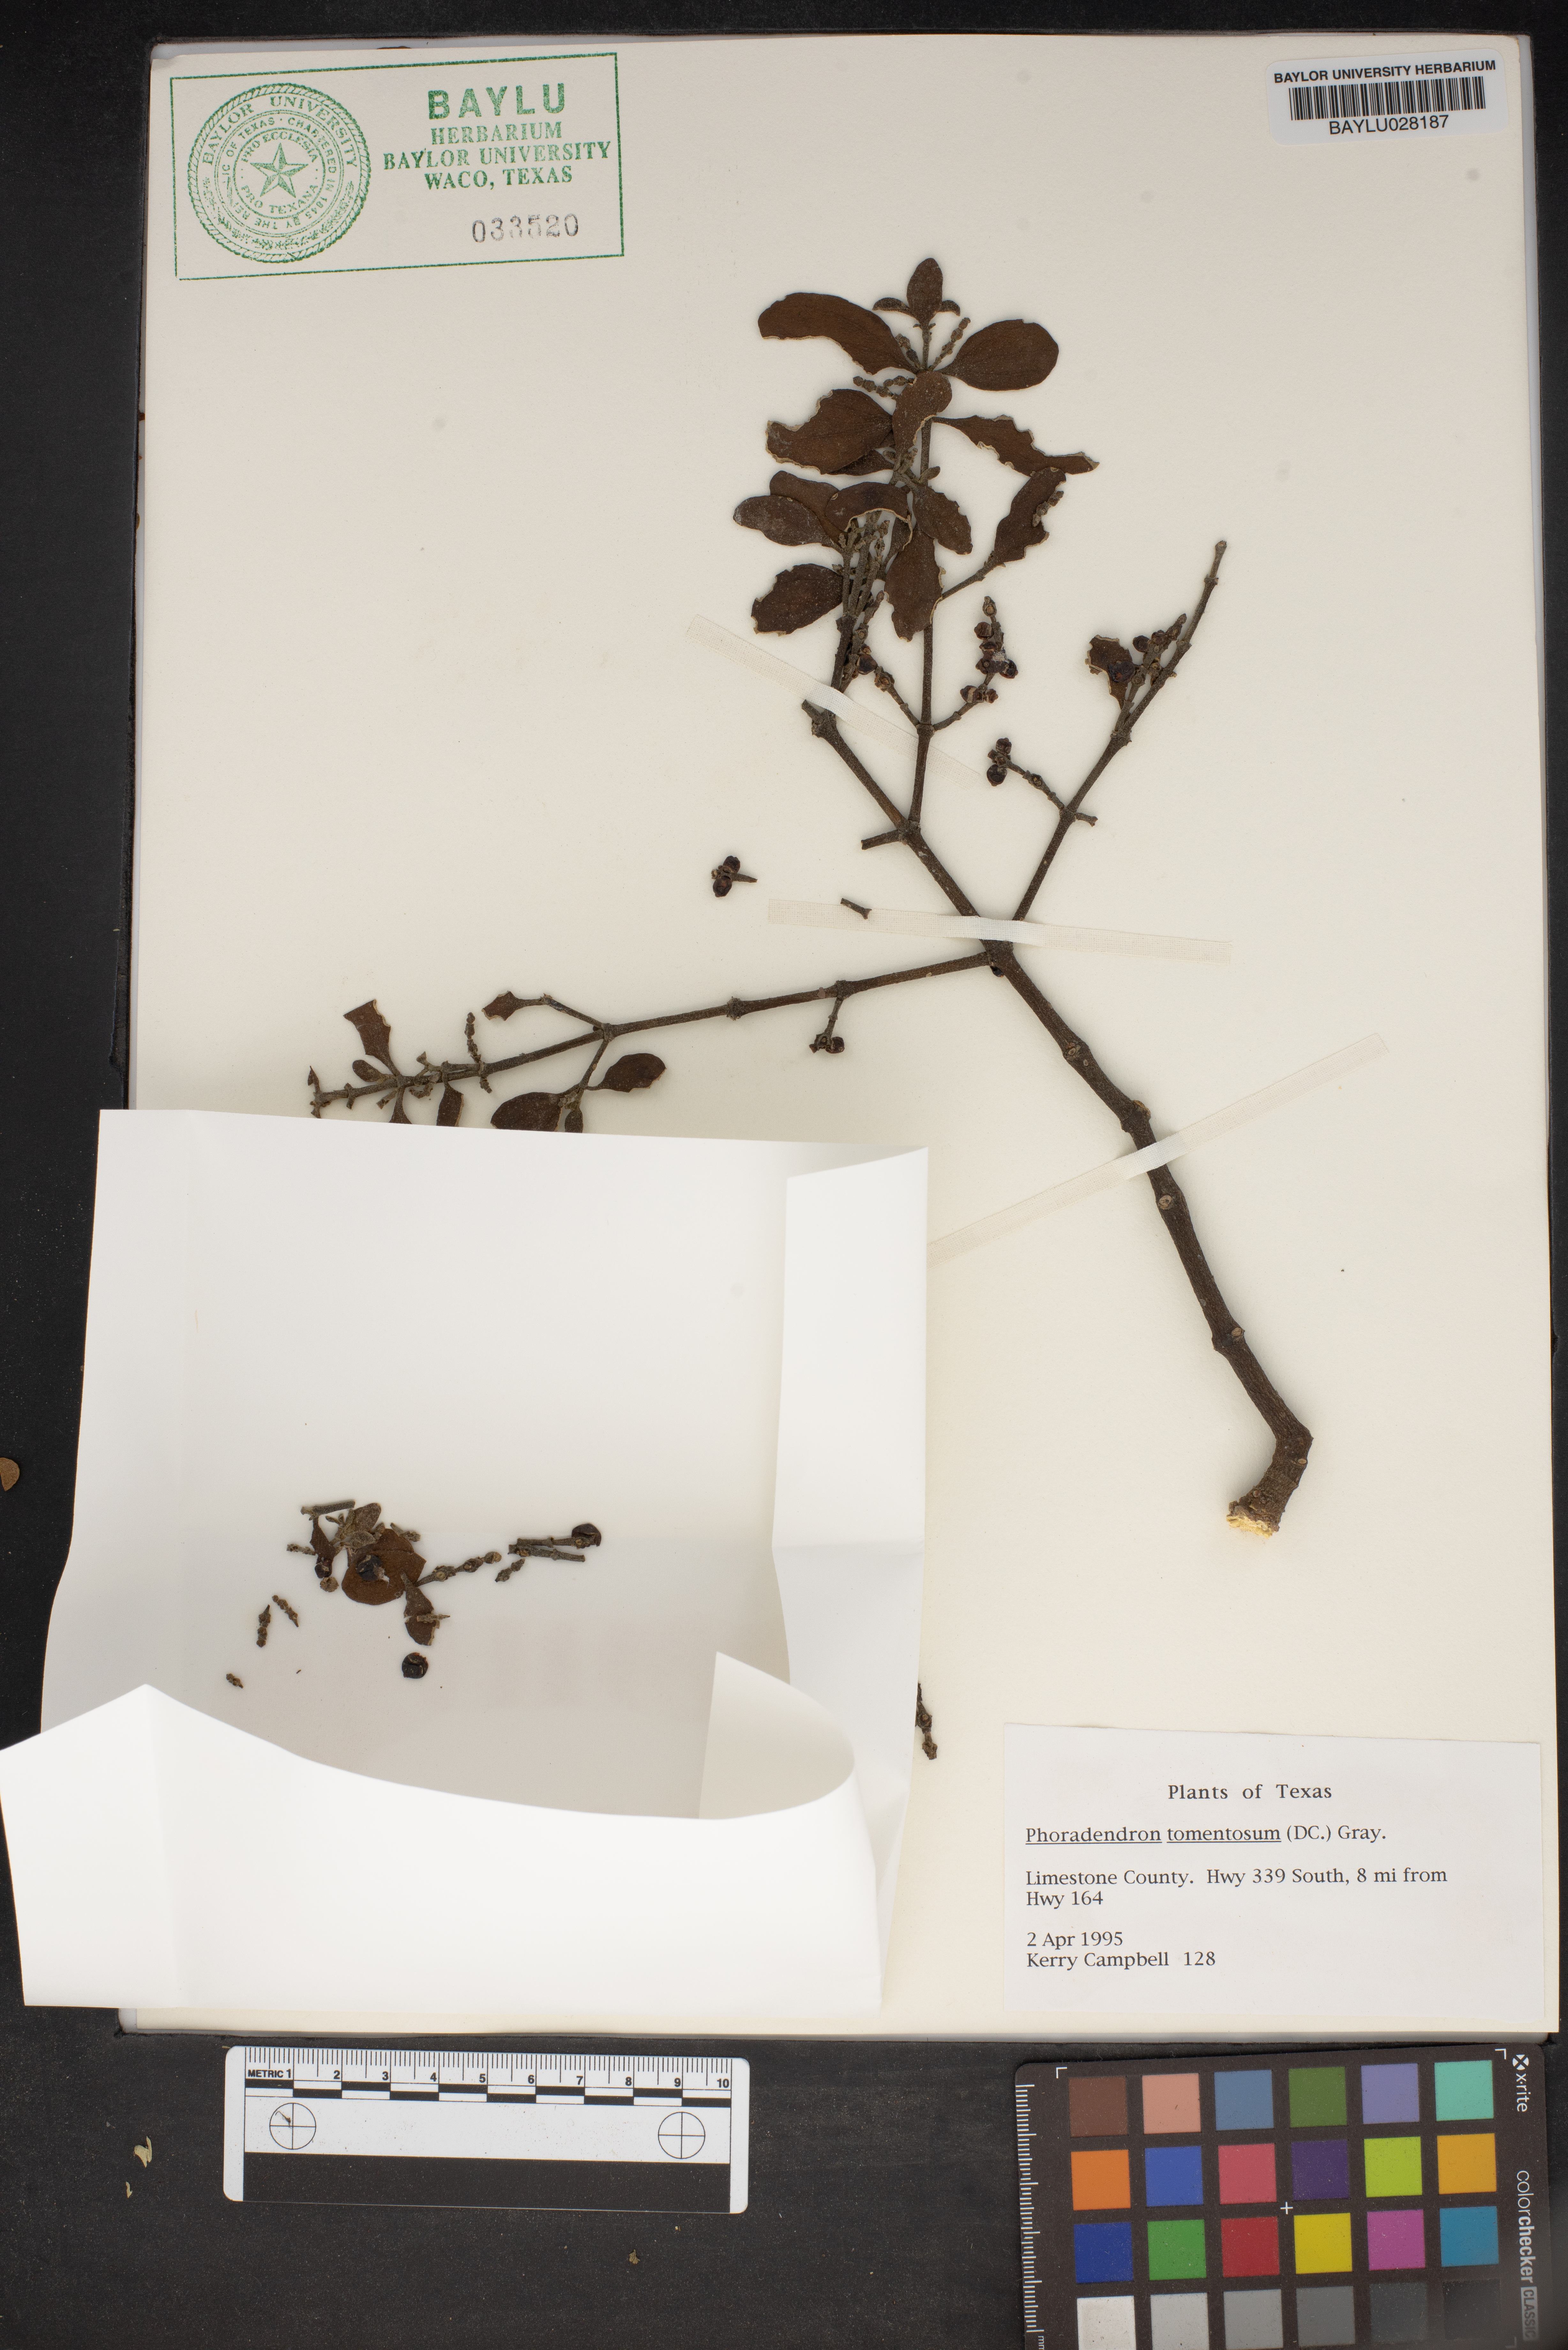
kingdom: Plantae
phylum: Tracheophyta
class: Magnoliopsida
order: Santalales
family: Viscaceae
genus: Phoradendron
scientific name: Phoradendron leucarpum
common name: Pacific mistletoe
